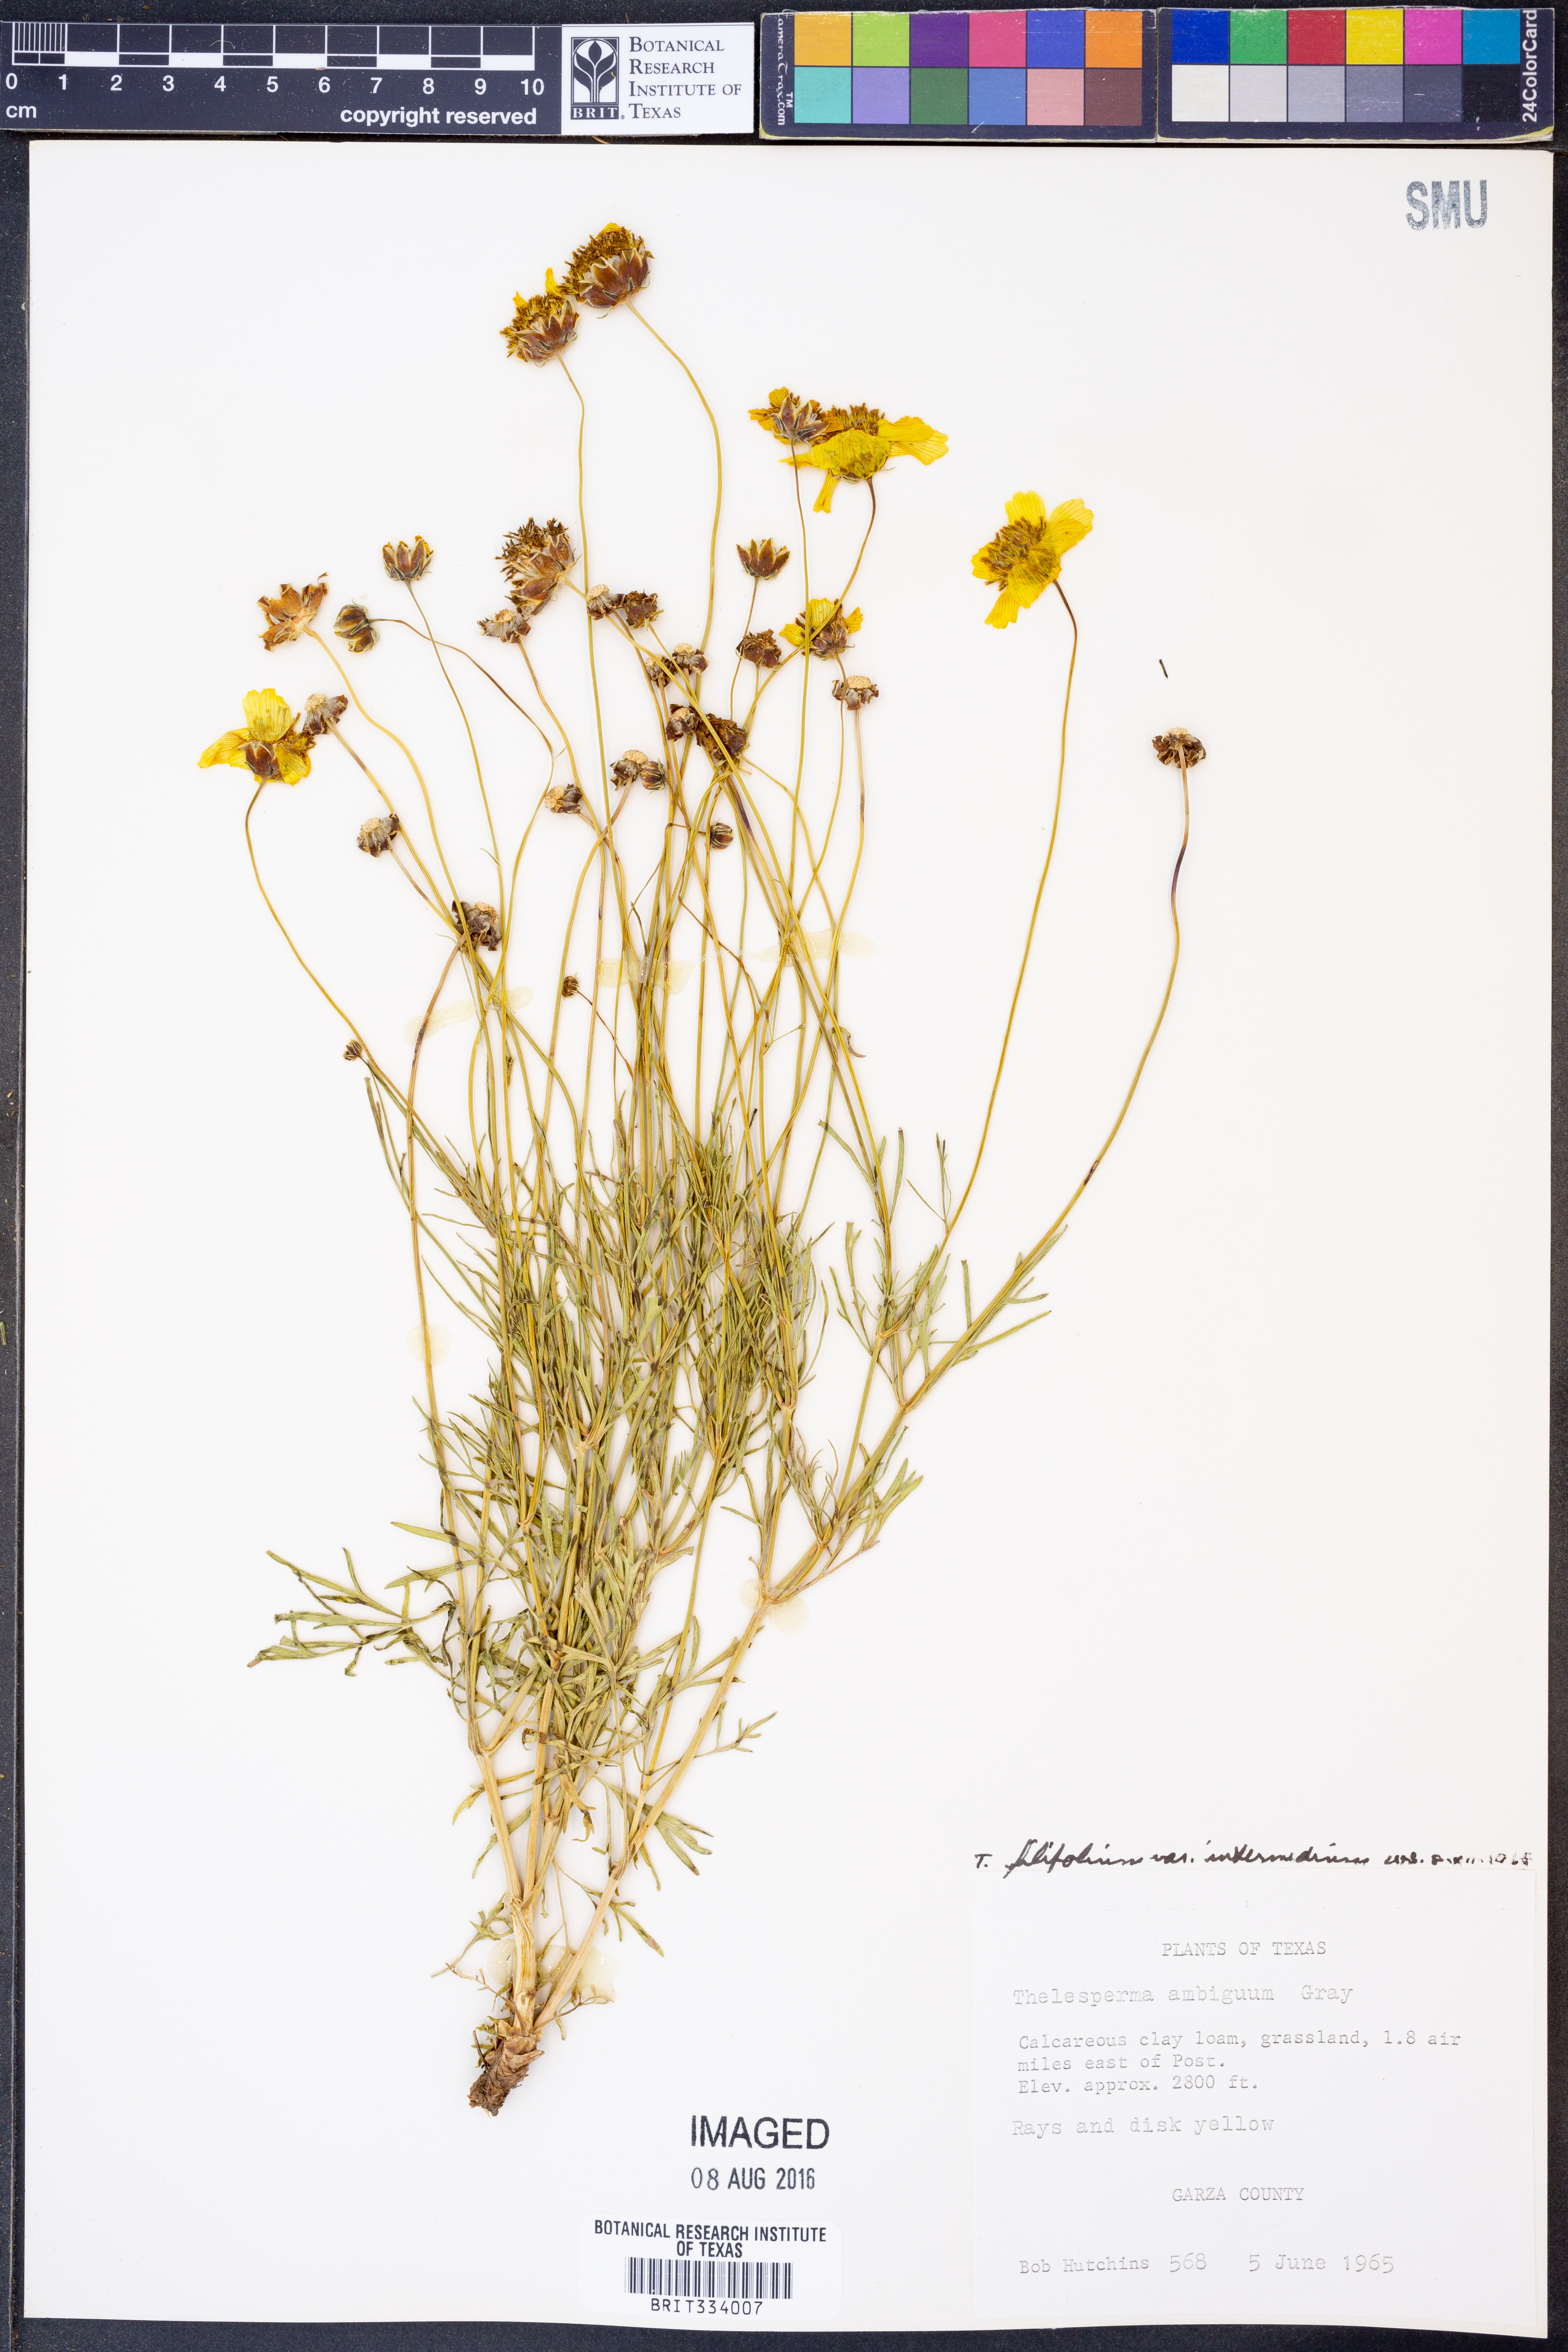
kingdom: Plantae
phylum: Tracheophyta
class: Magnoliopsida
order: Asterales
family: Asteraceae
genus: Thelesperma
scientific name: Thelesperma filifolium
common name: Stiff greenthread
